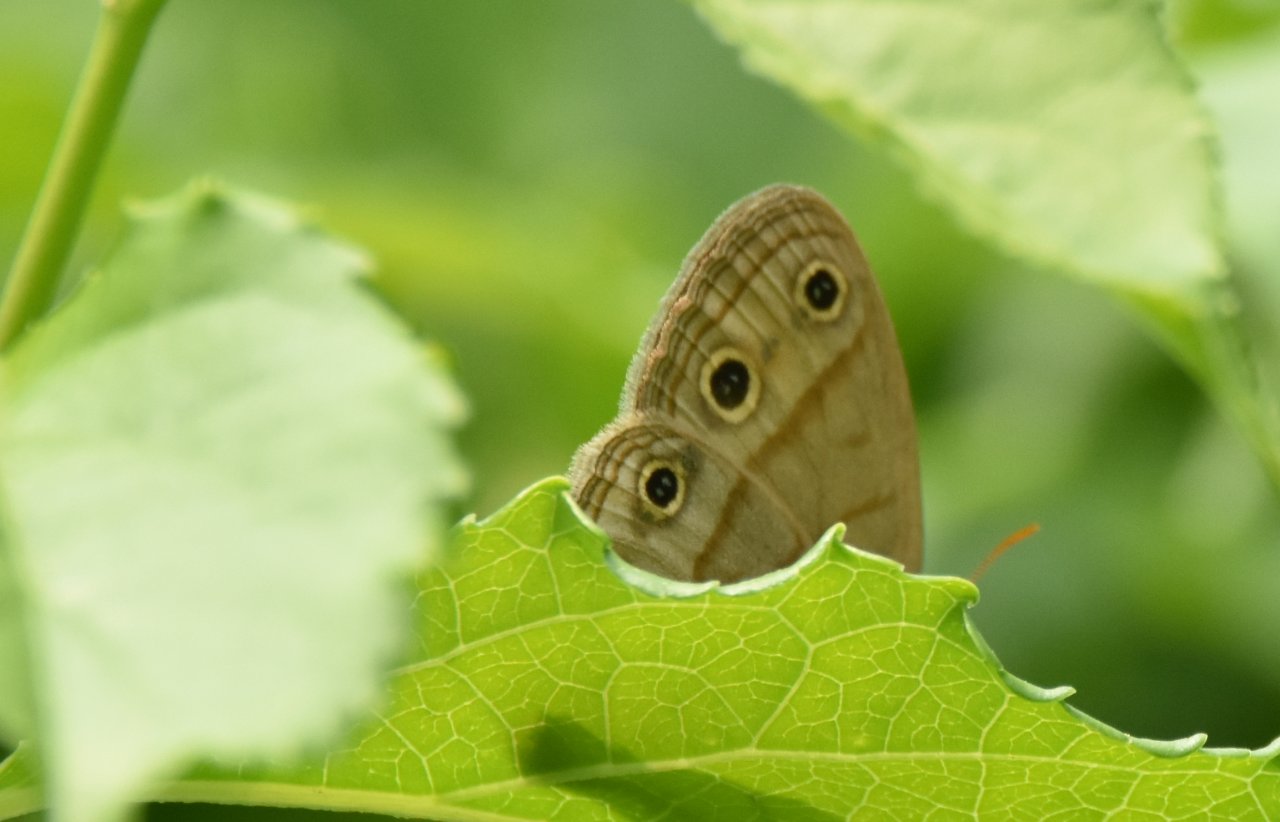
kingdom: Animalia
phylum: Arthropoda
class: Insecta
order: Lepidoptera
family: Nymphalidae
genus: Euptychia
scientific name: Euptychia cymela
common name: Little Wood Satyr
